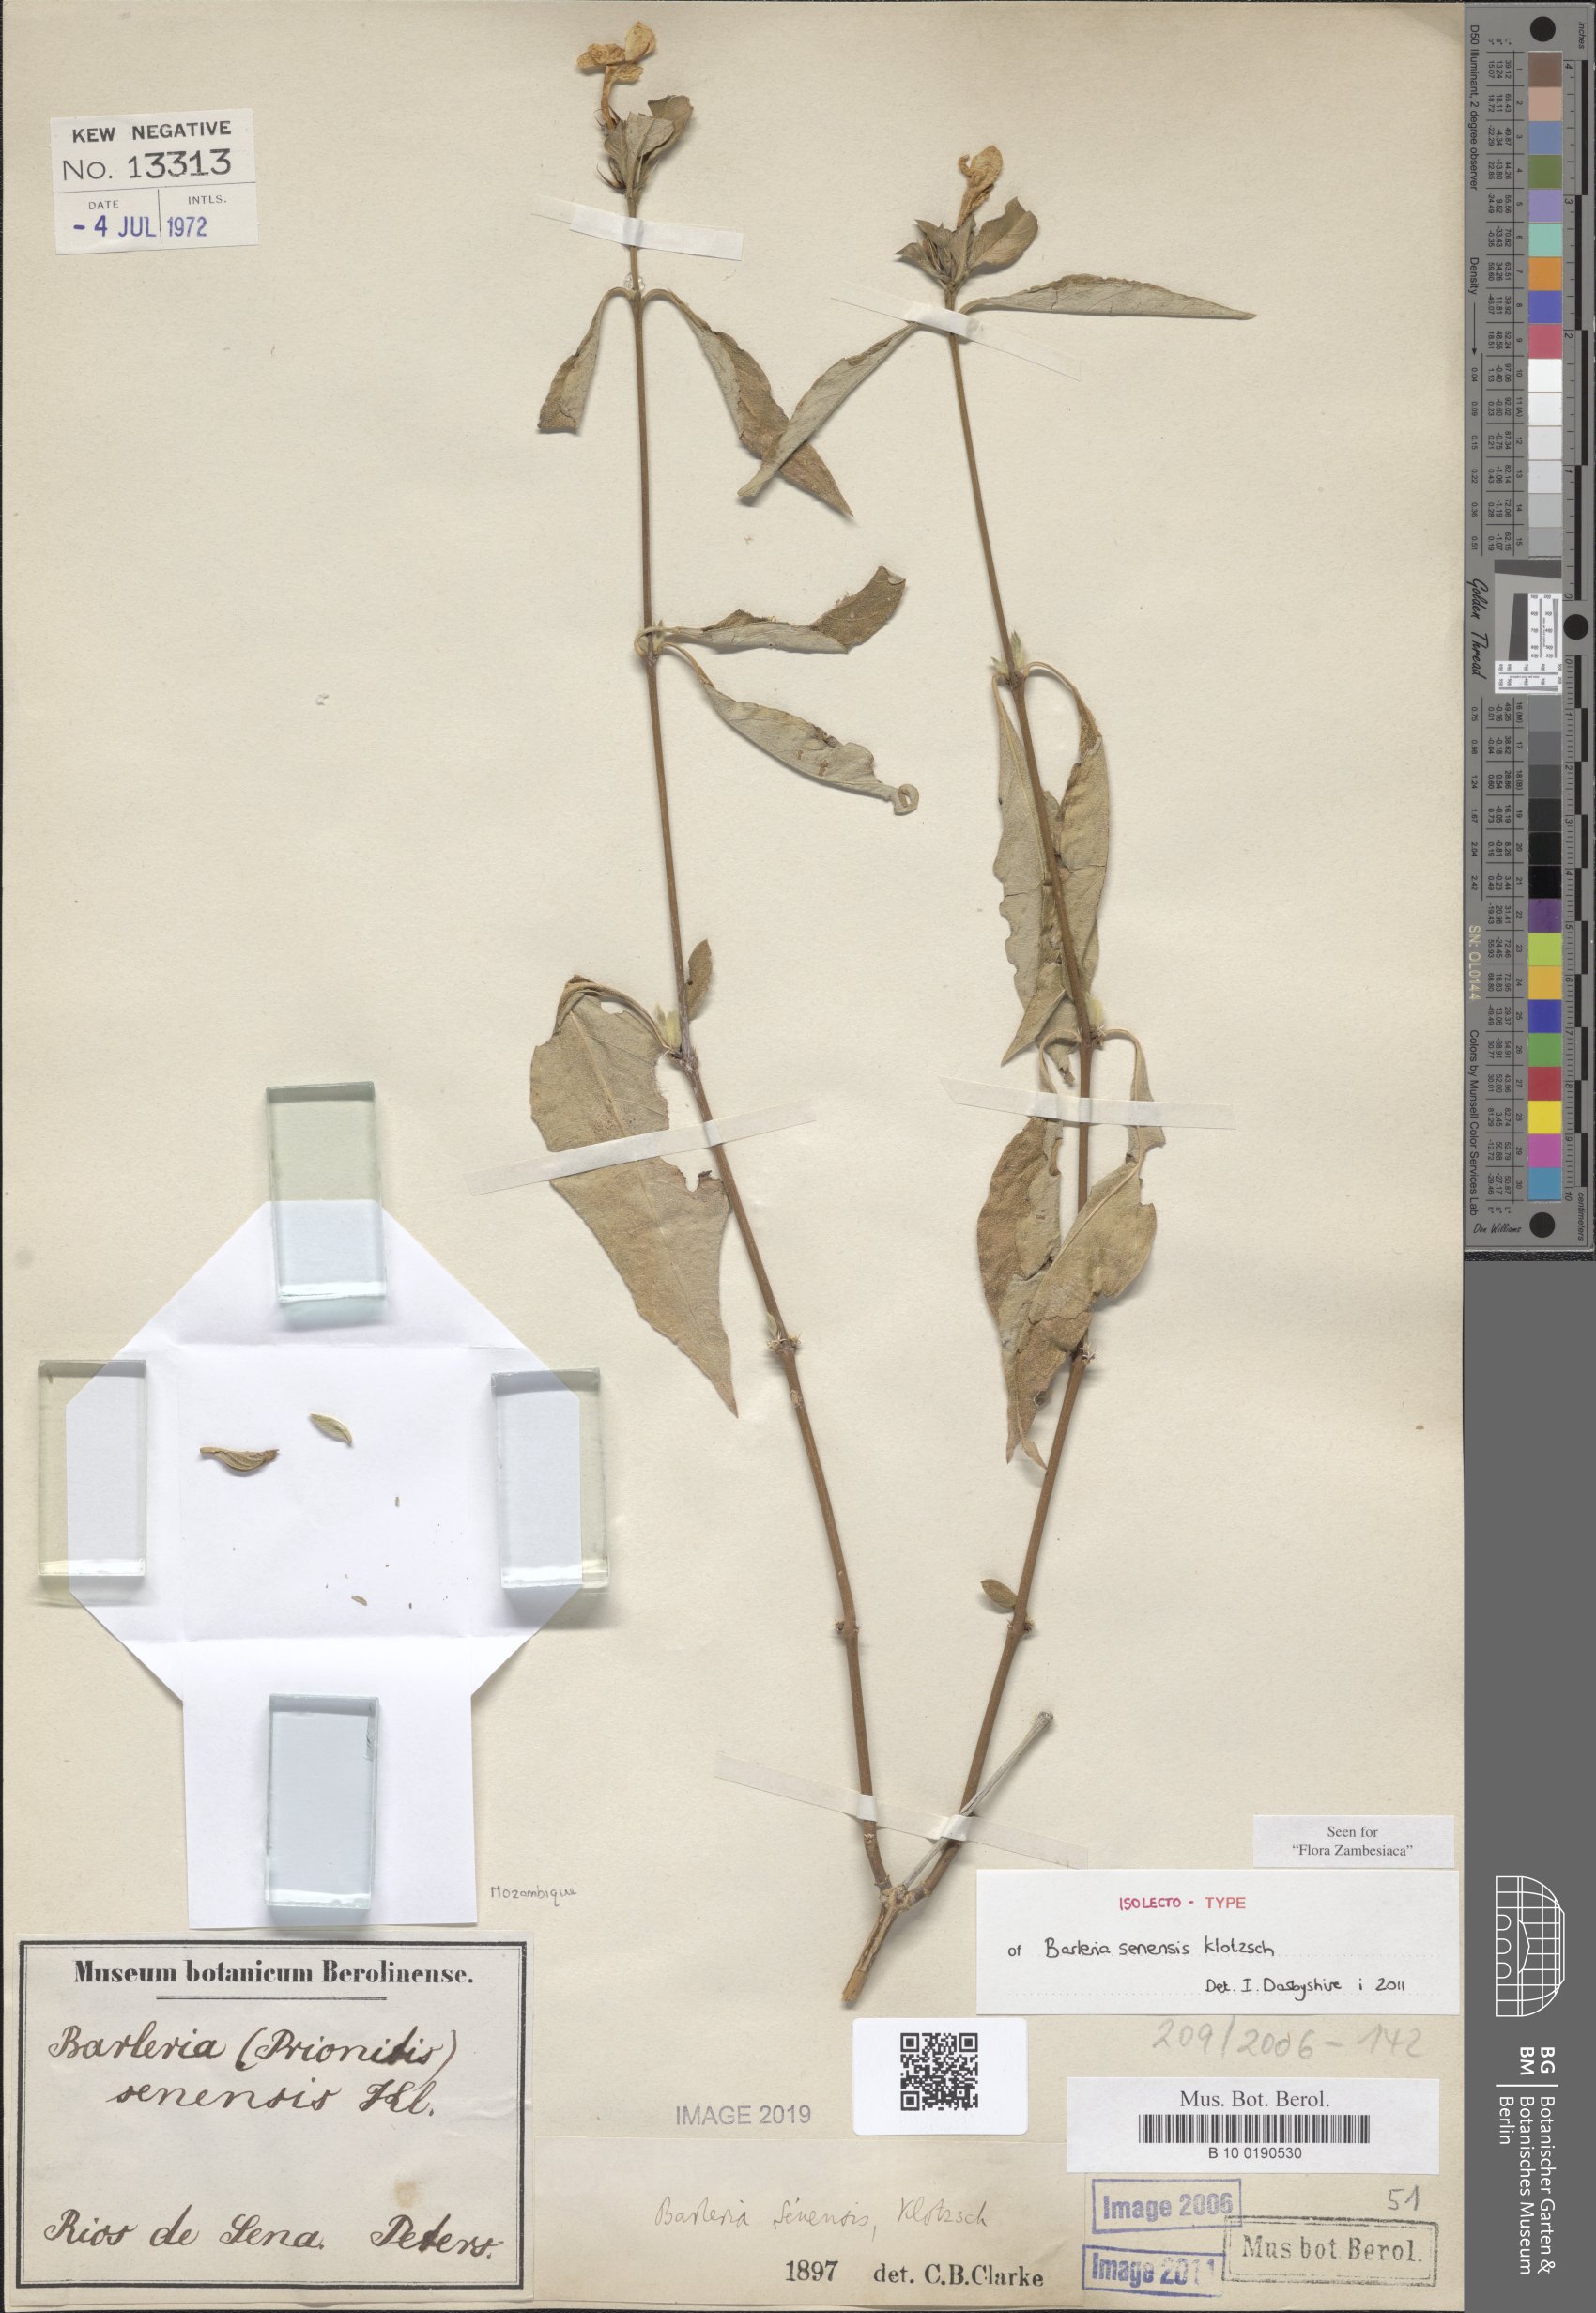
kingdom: Plantae
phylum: Tracheophyta
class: Magnoliopsida
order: Lamiales
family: Acanthaceae
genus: Barleria
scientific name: Barleria senensis
